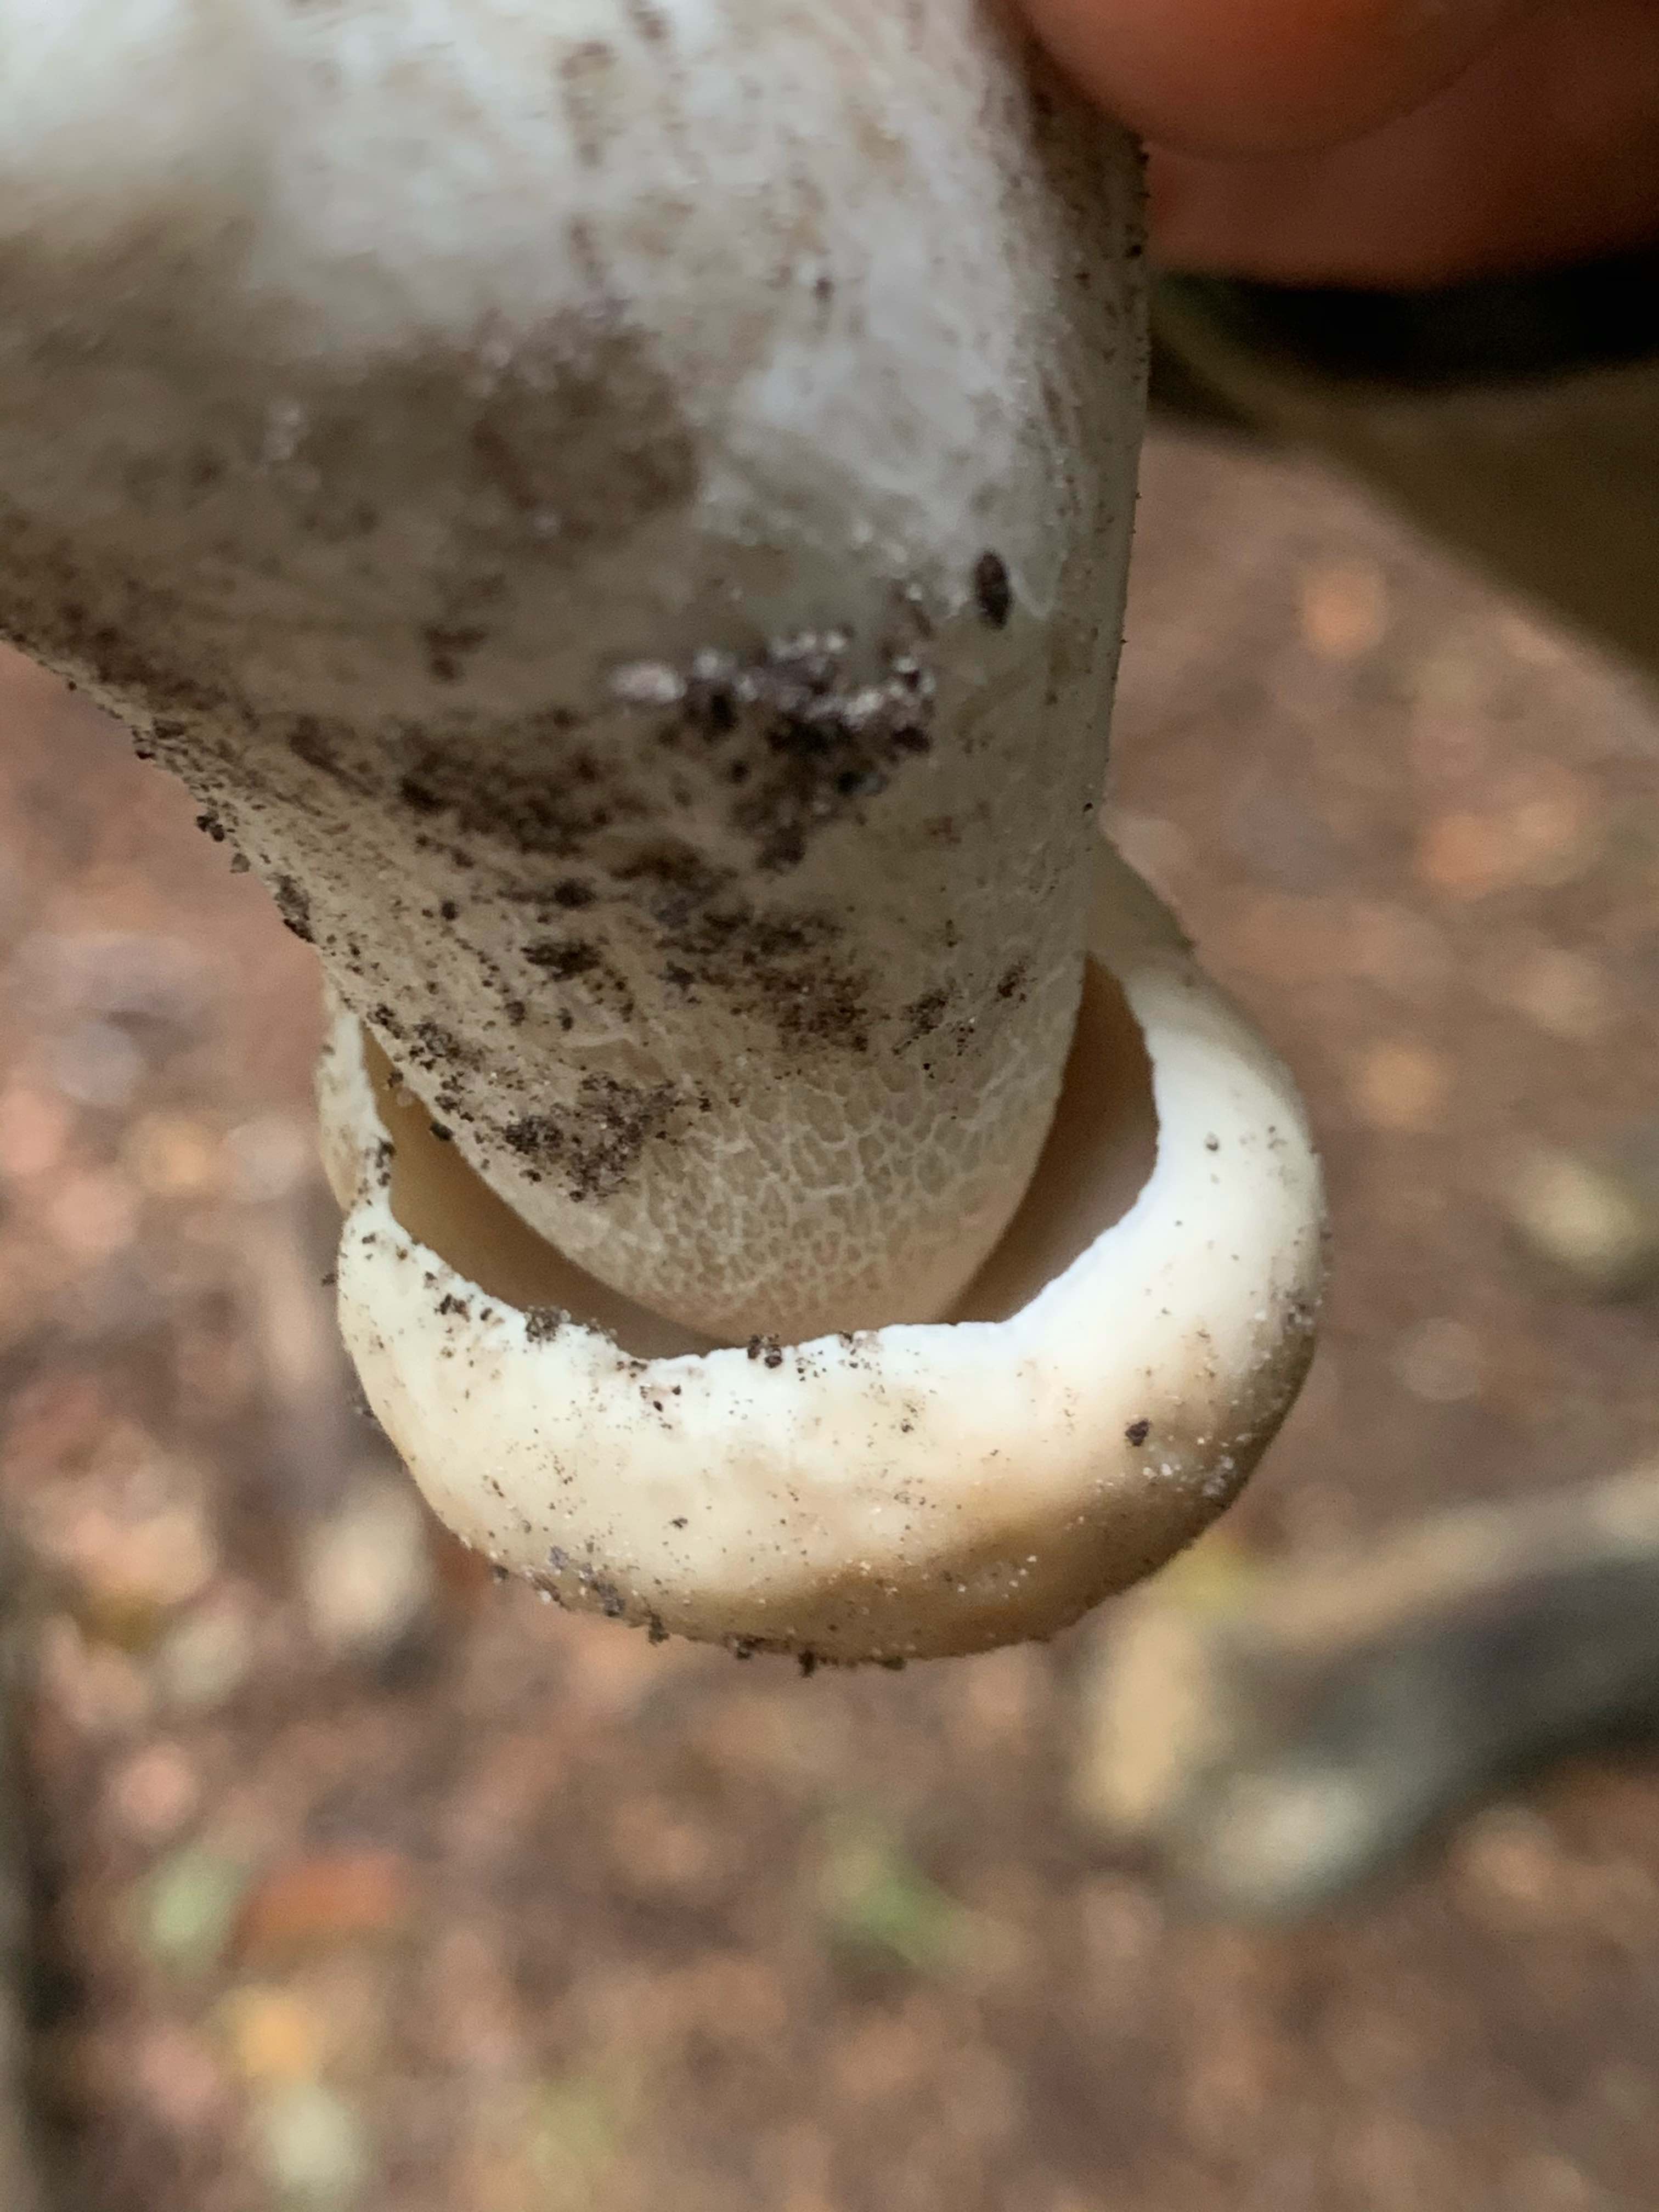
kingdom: Fungi
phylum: Basidiomycota
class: Agaricomycetes
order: Boletales
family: Boletaceae
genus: Boletus
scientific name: Boletus edulis
